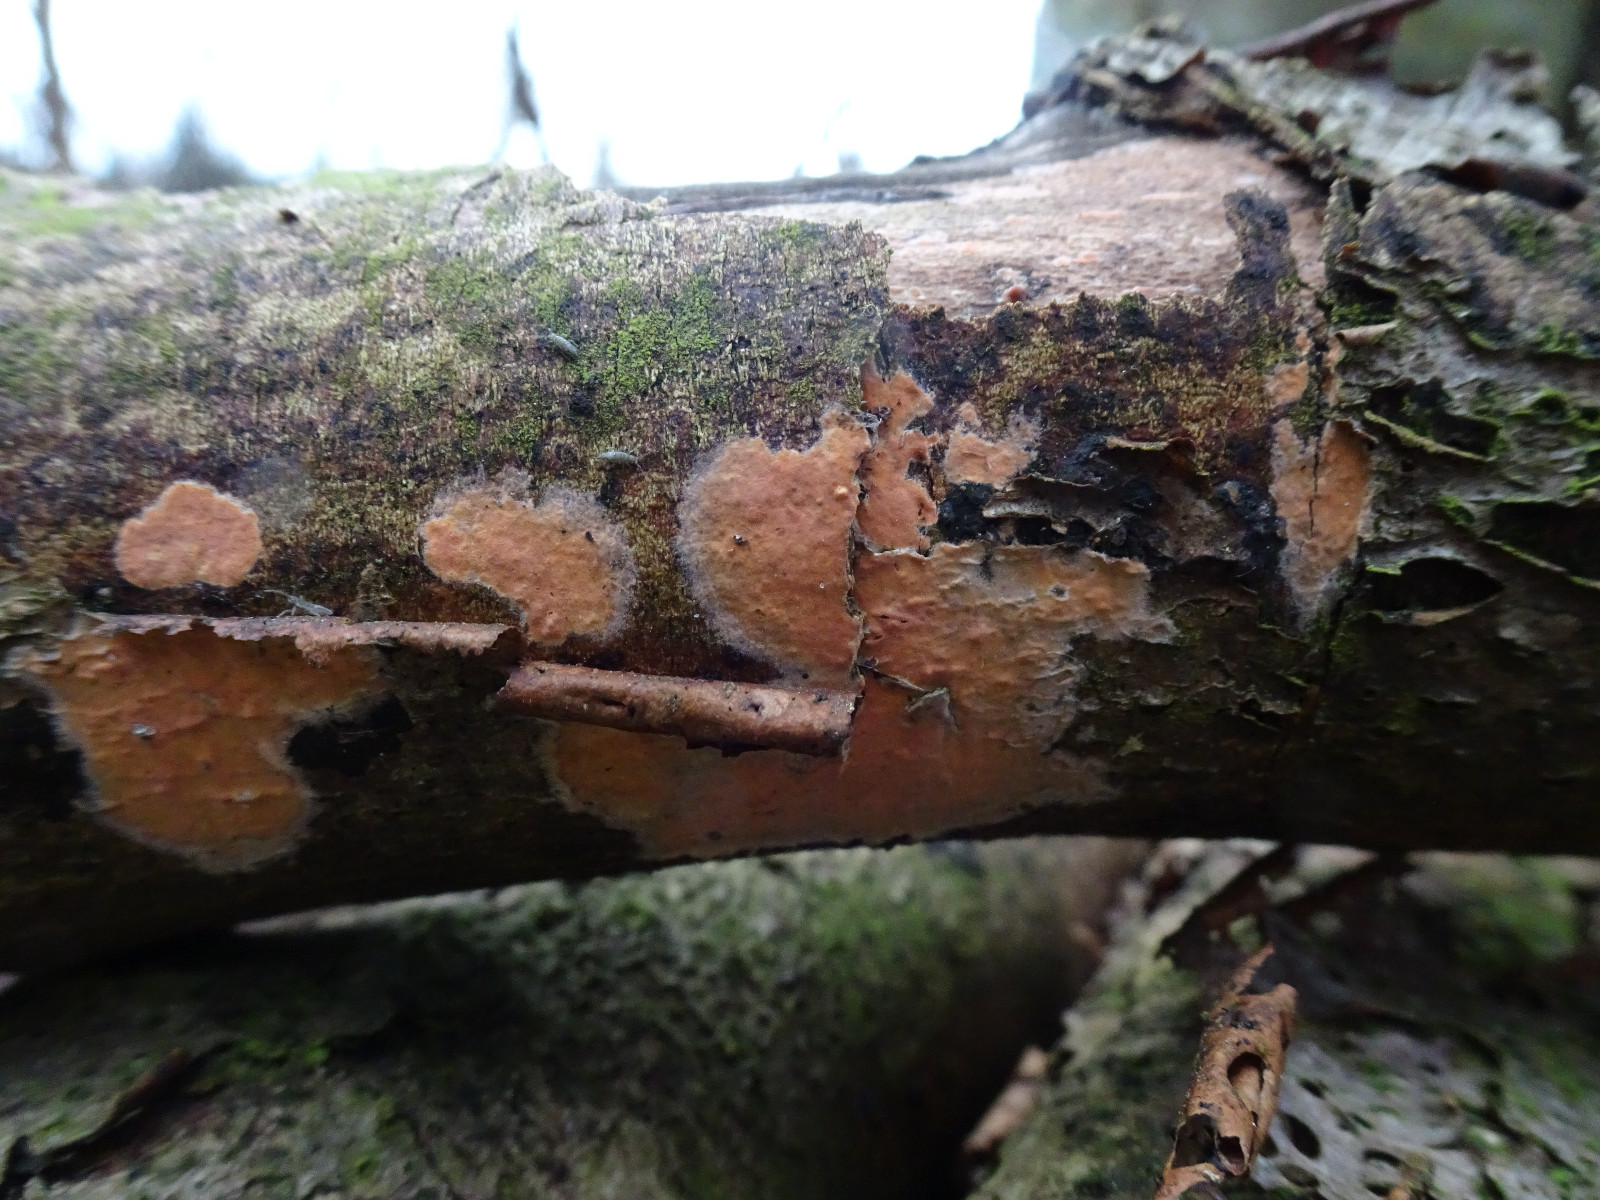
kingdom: Fungi
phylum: Basidiomycota
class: Agaricomycetes
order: Russulales
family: Peniophoraceae
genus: Peniophora
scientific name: Peniophora incarnata
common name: laksefarvet voksskind
